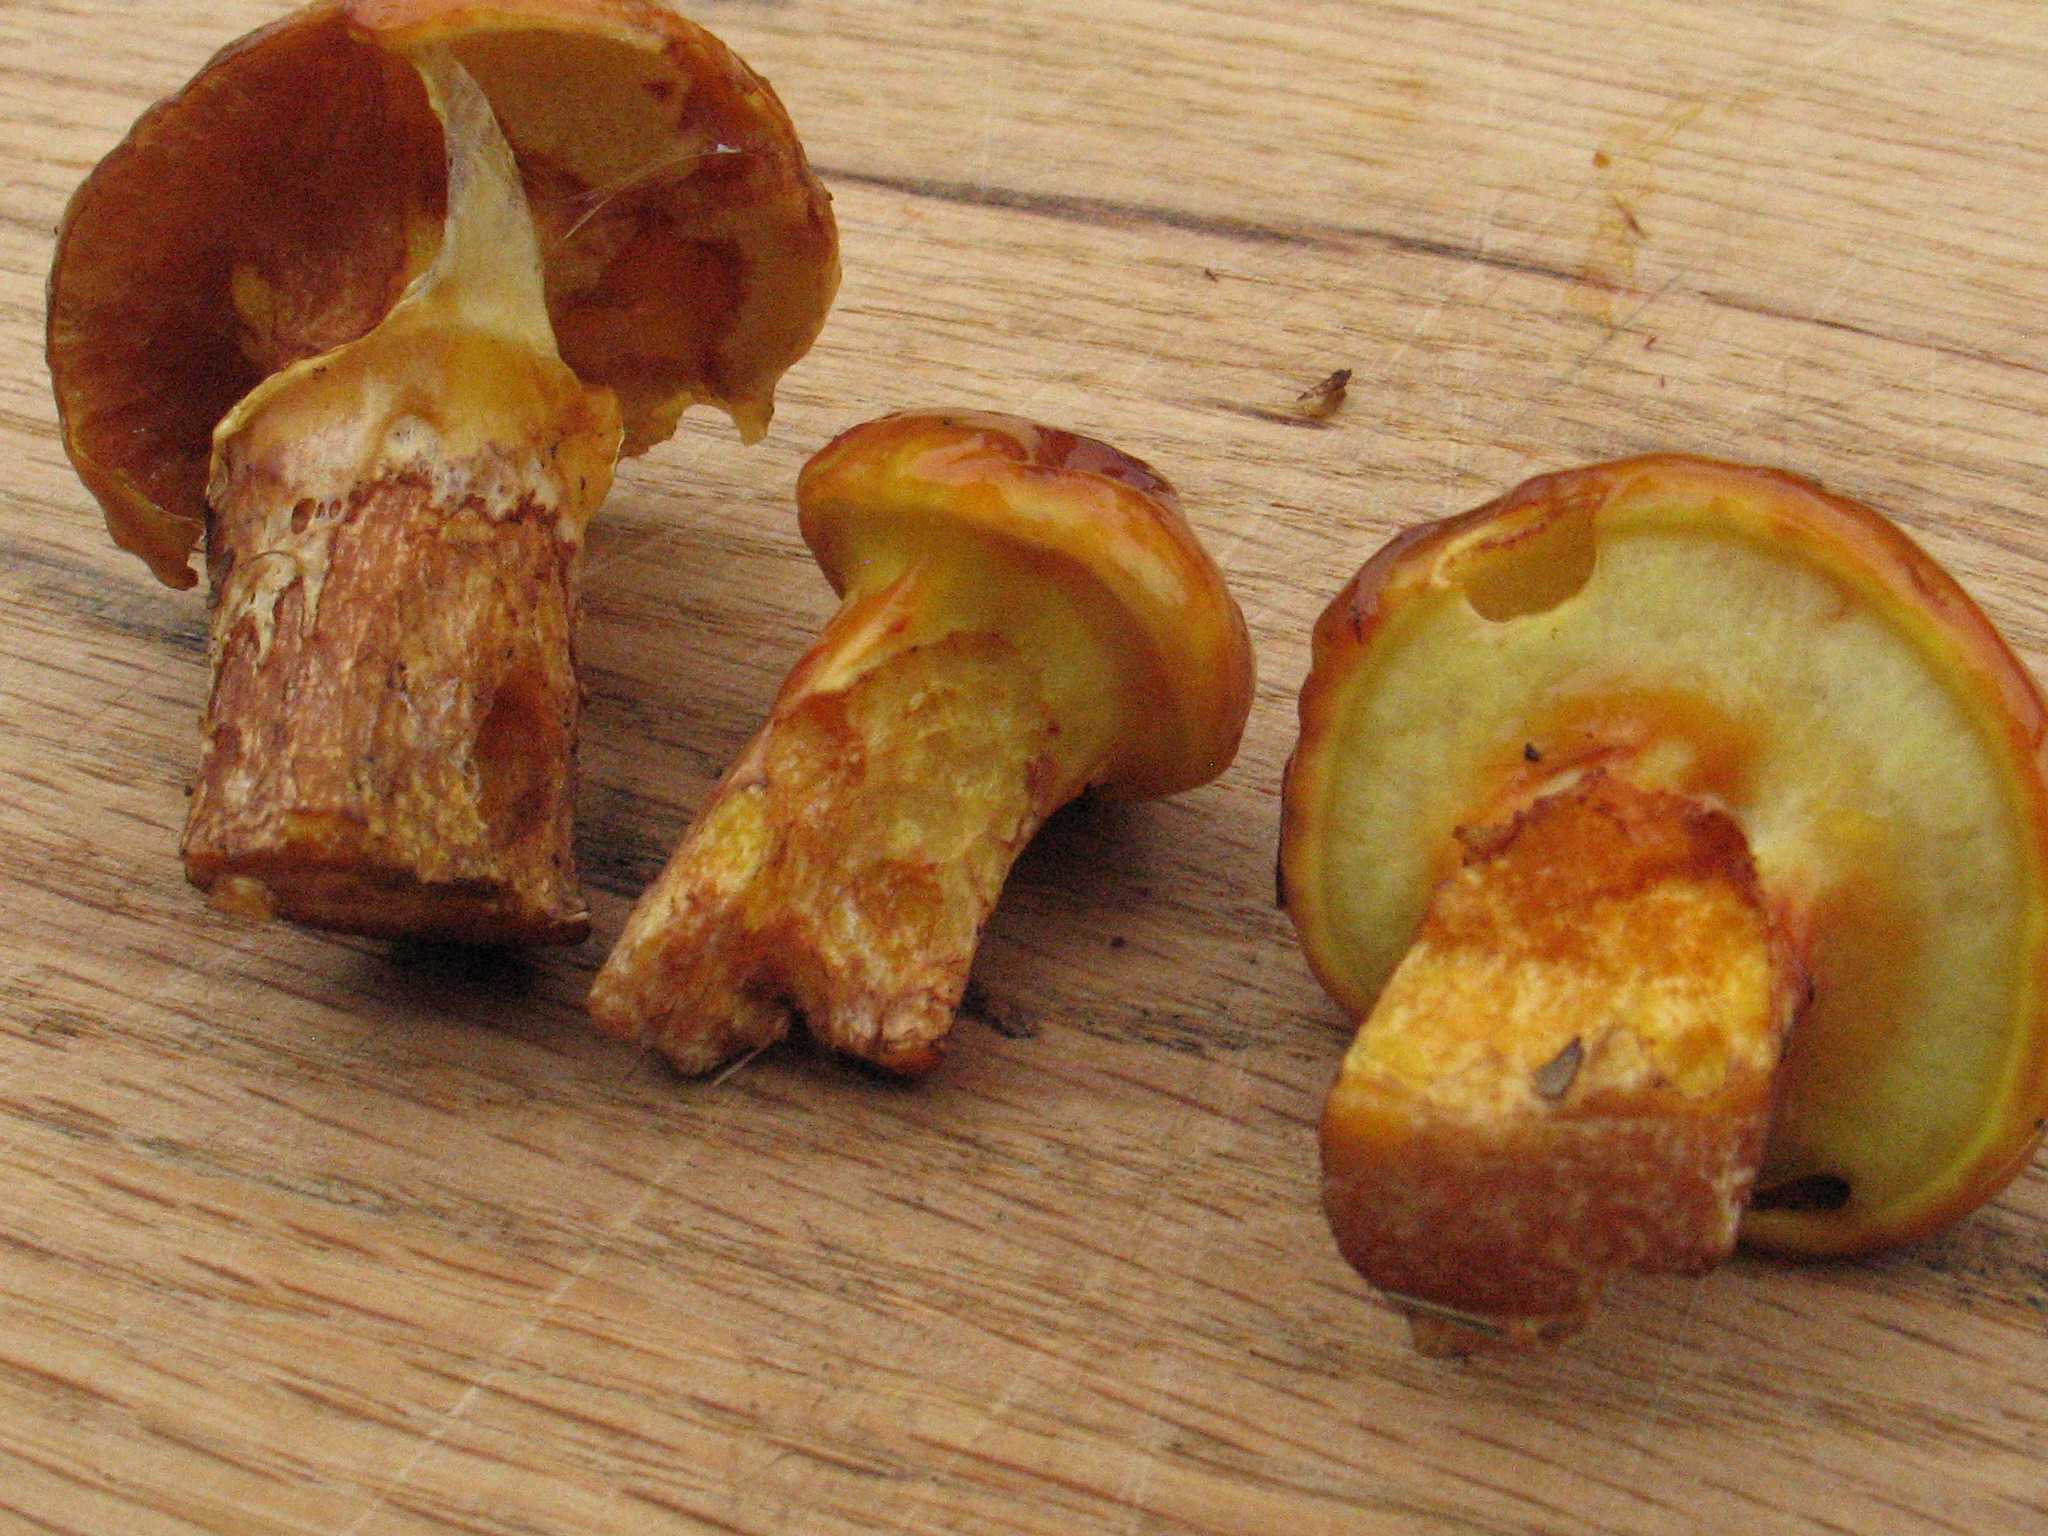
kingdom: Fungi
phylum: Basidiomycota
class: Agaricomycetes
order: Boletales
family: Suillaceae
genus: Suillus
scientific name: Suillus grevillei
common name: lærke-slimrørhat
